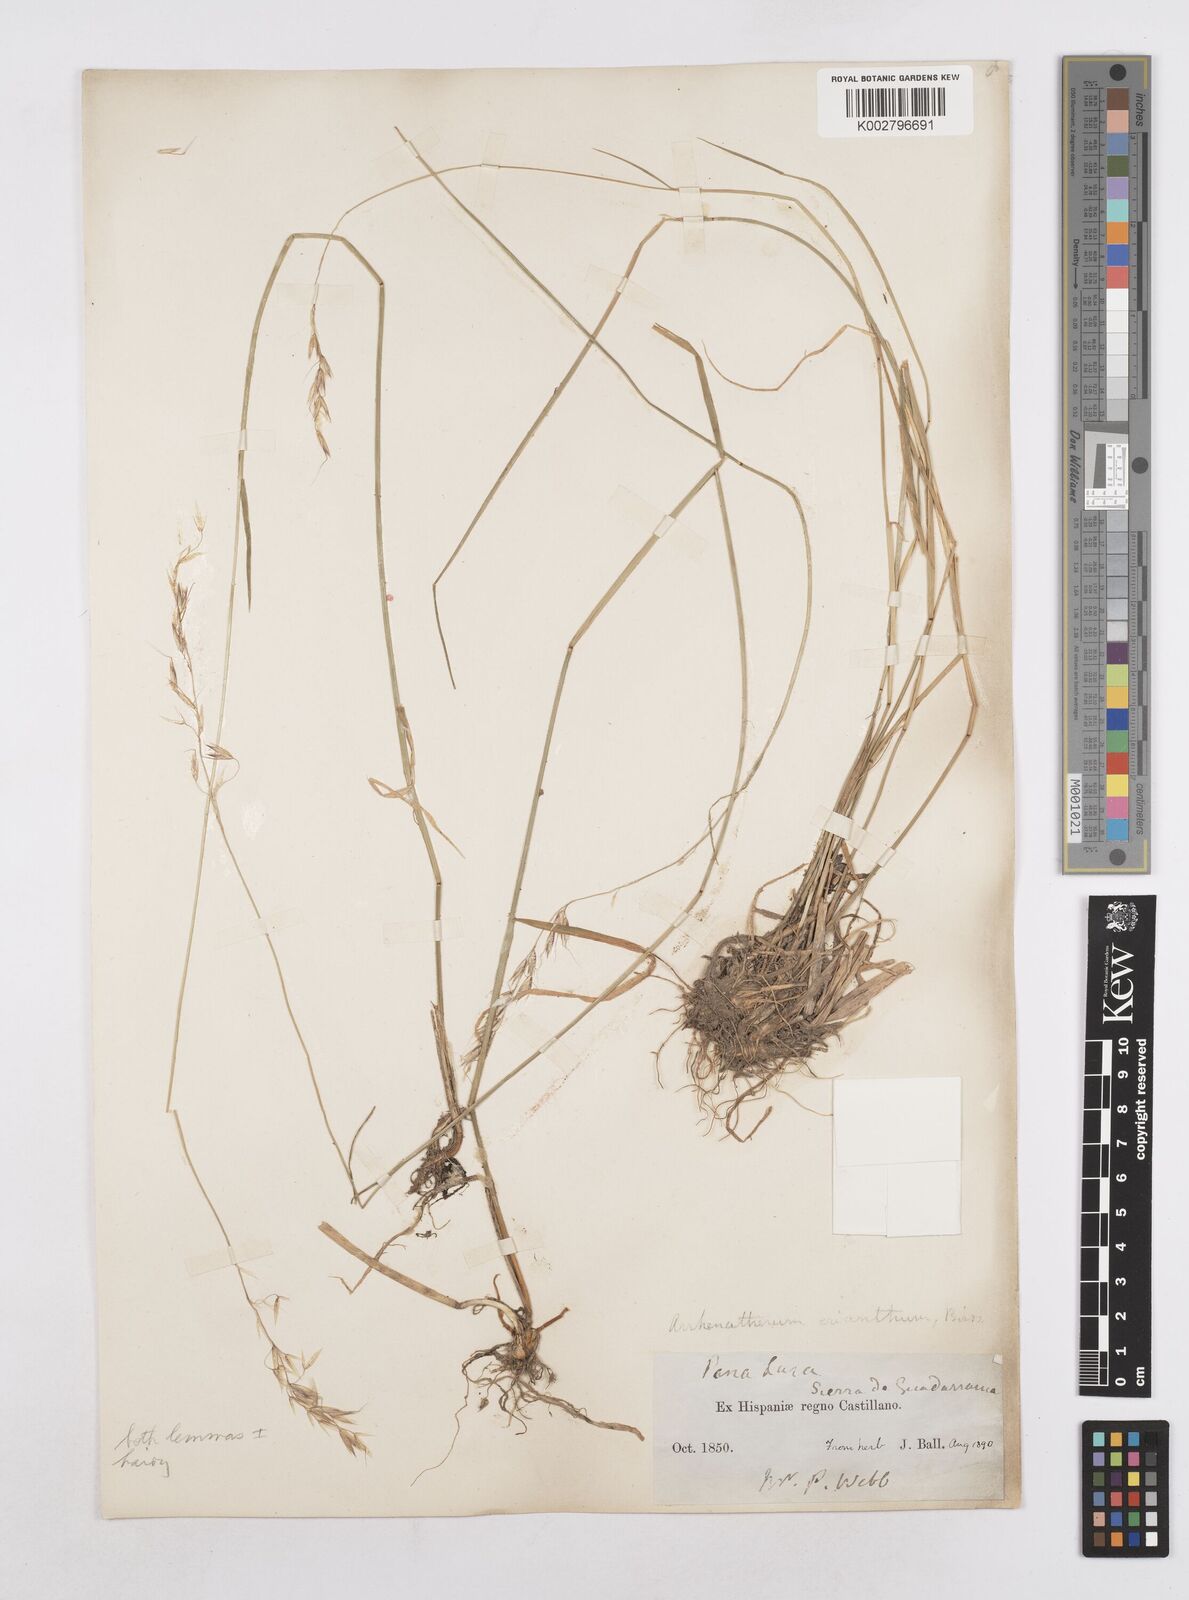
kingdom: Plantae
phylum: Tracheophyta
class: Liliopsida
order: Poales
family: Poaceae
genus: Arrhenatherum
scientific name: Arrhenatherum album
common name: Tall oat grass
